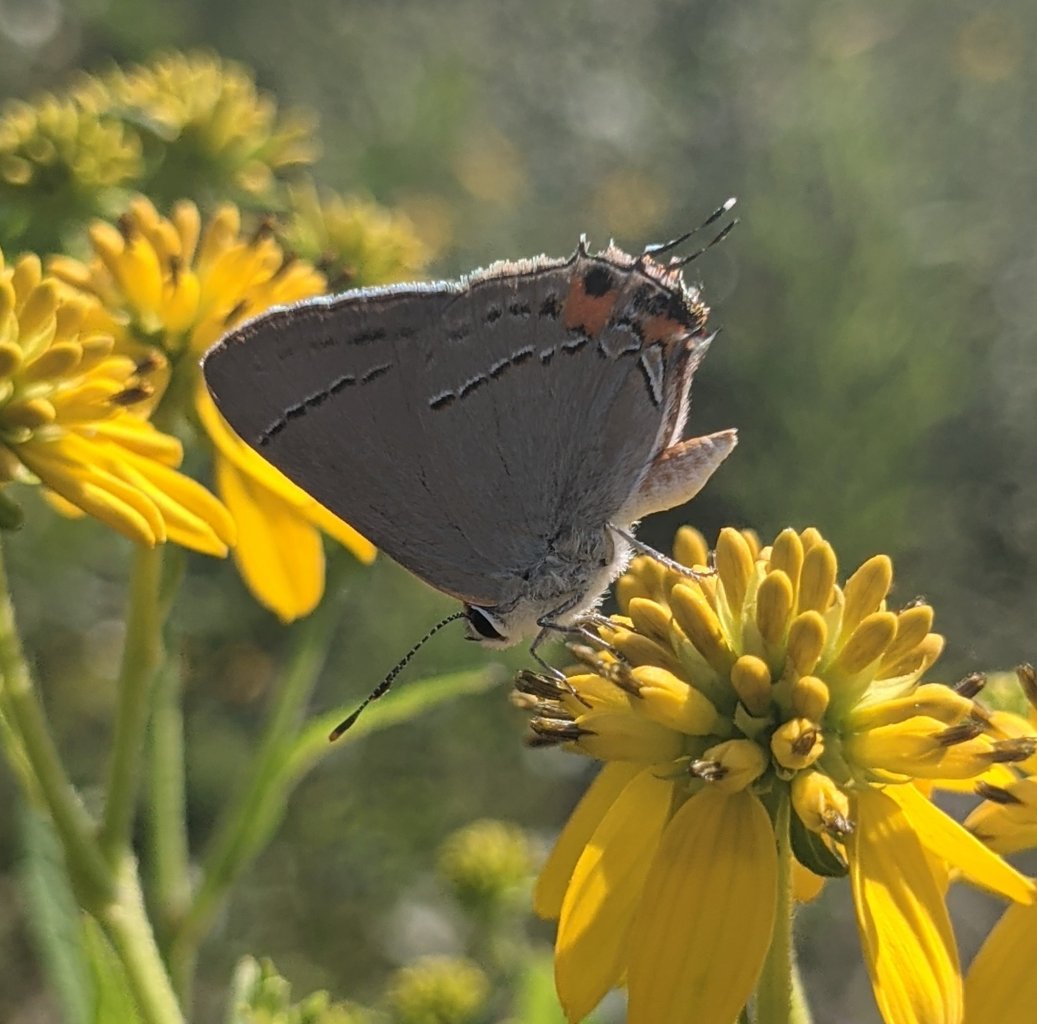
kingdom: Animalia
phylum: Arthropoda
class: Insecta
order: Lepidoptera
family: Lycaenidae
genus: Strymon
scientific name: Strymon melinus
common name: Gray Hairstreak
